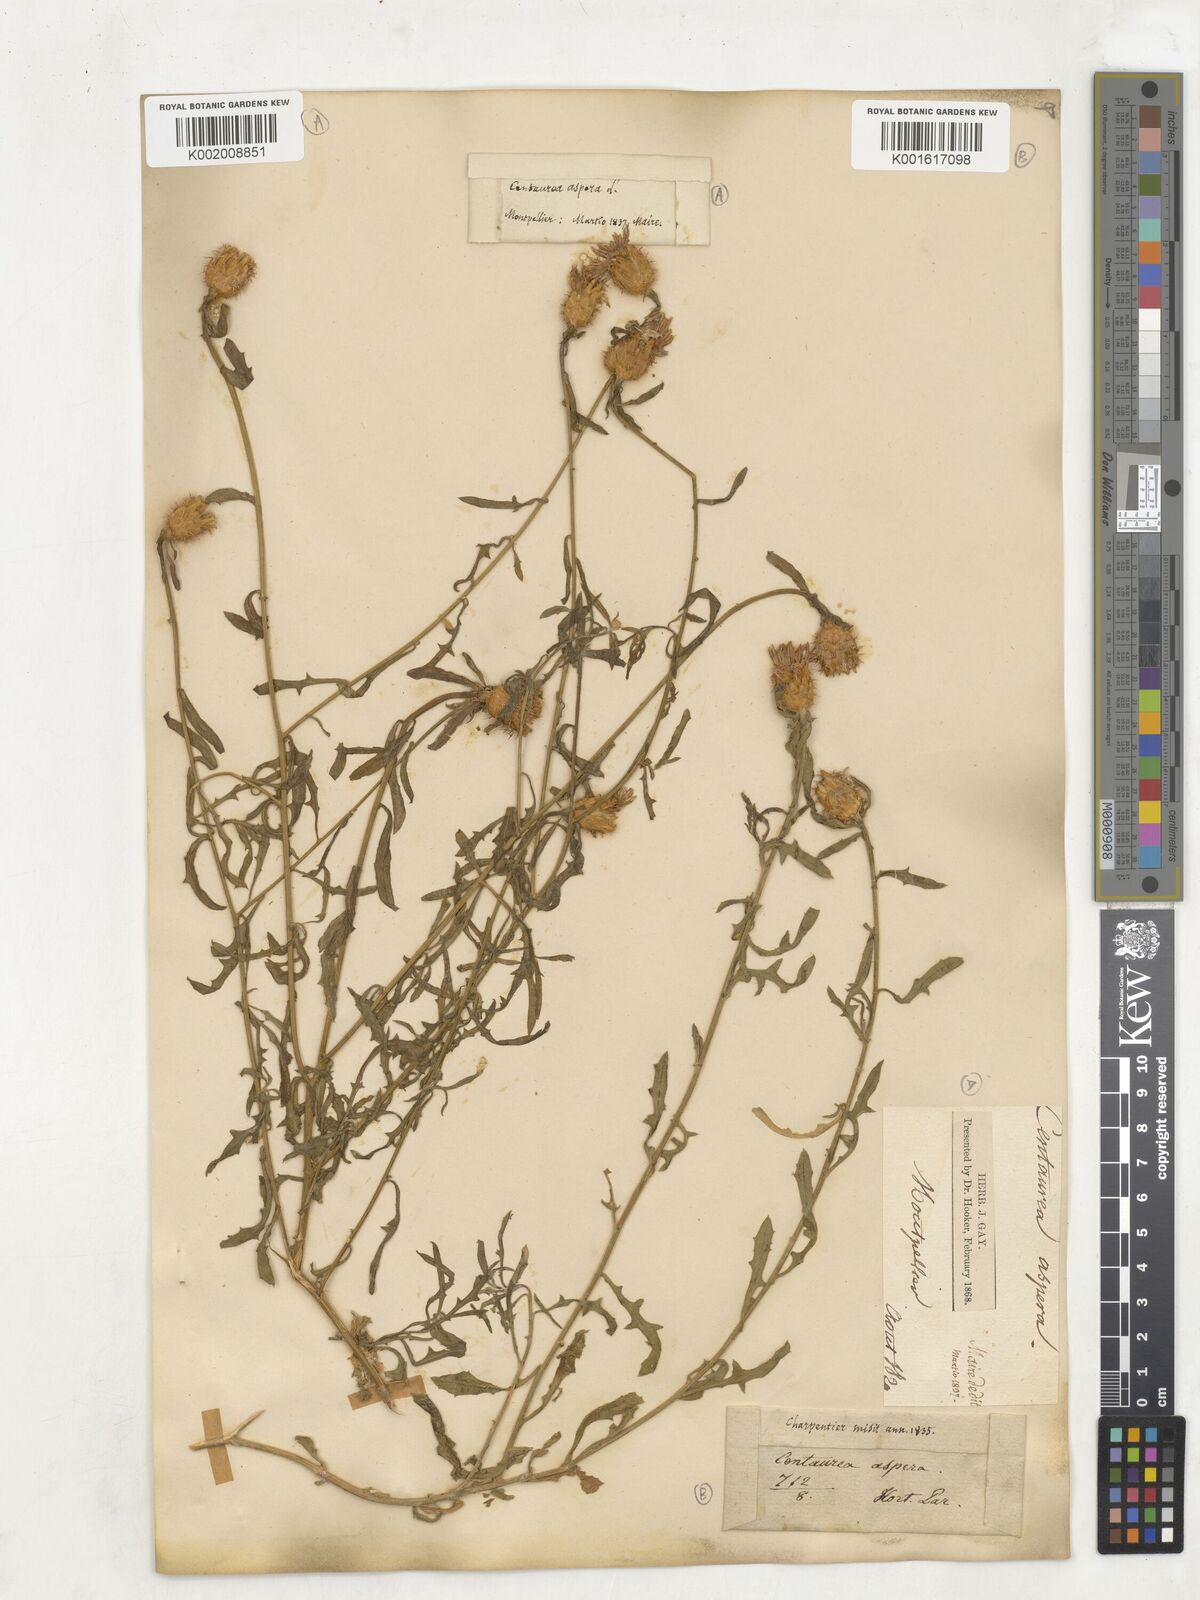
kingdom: Plantae
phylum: Tracheophyta
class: Magnoliopsida
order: Asterales
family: Asteraceae
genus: Centaurea
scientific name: Centaurea aspera
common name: Rough star-thistle
